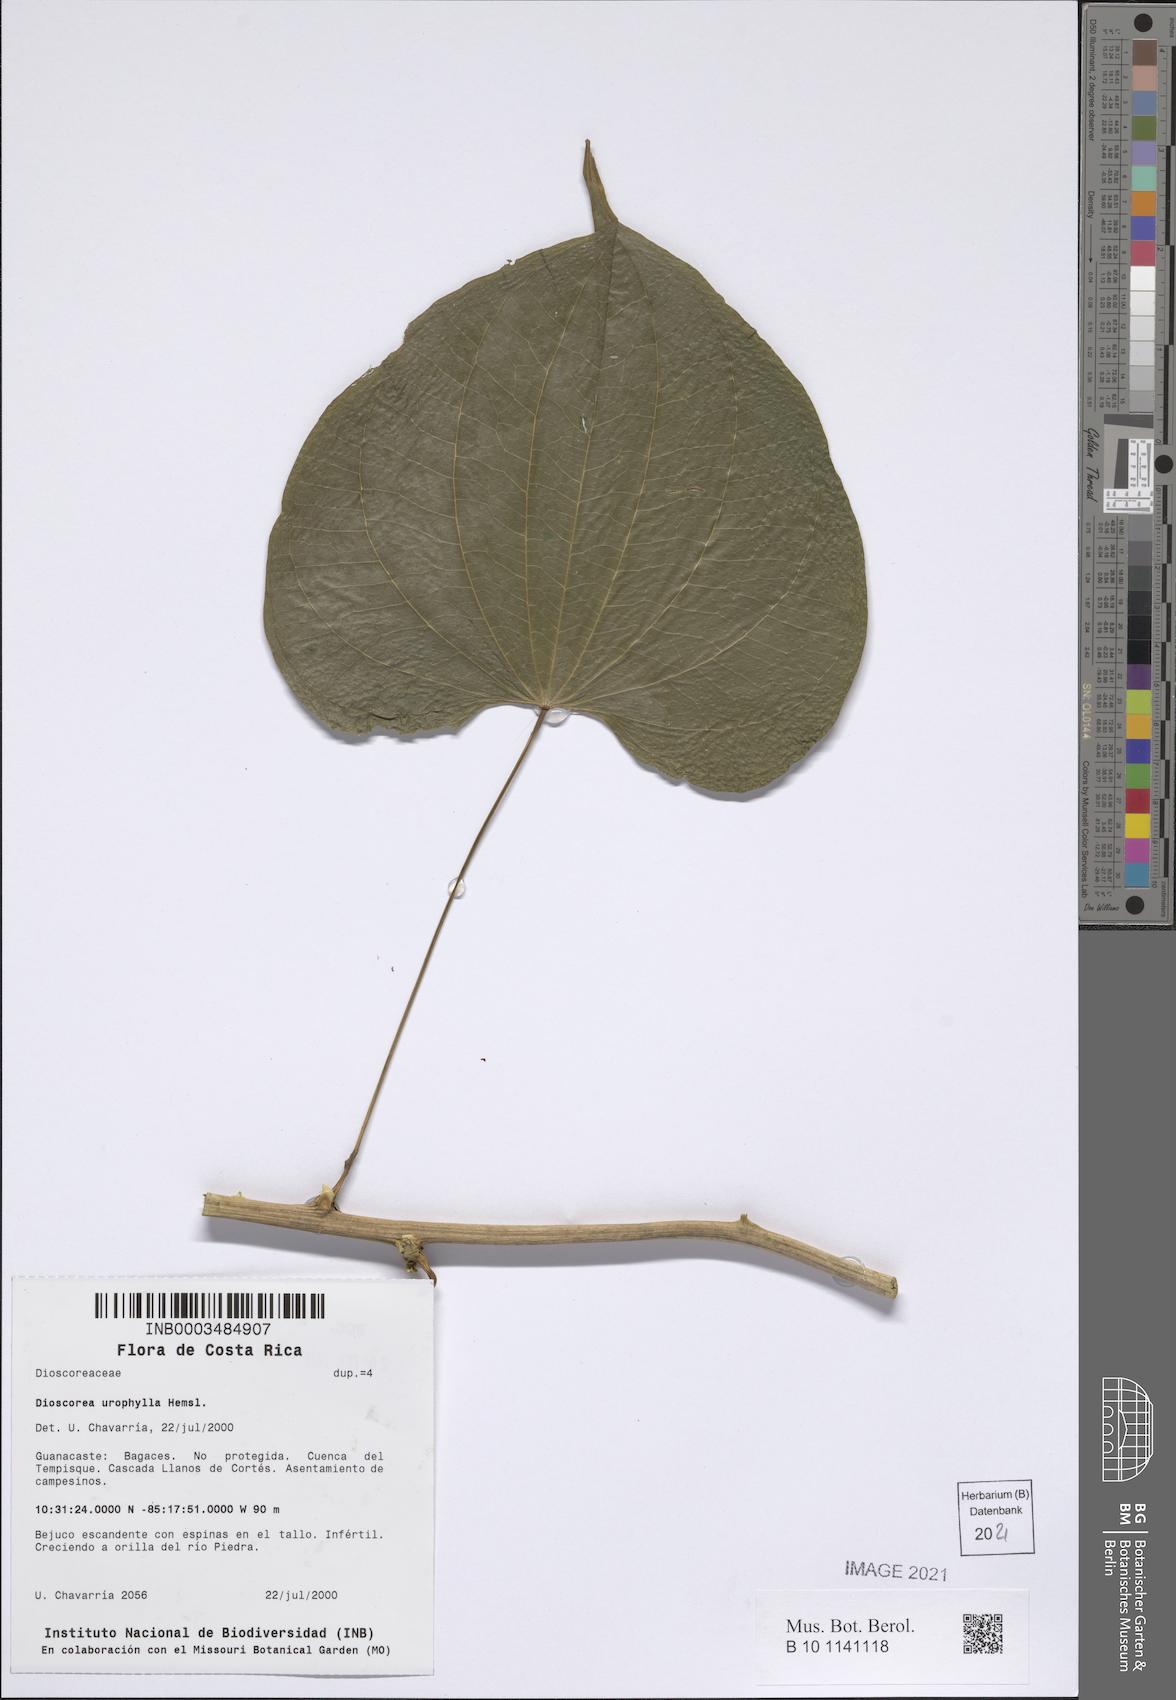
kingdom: Plantae
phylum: Tracheophyta
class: Liliopsida
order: Dioscoreales
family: Dioscoreaceae
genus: Dioscorea
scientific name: Dioscorea urophylla
